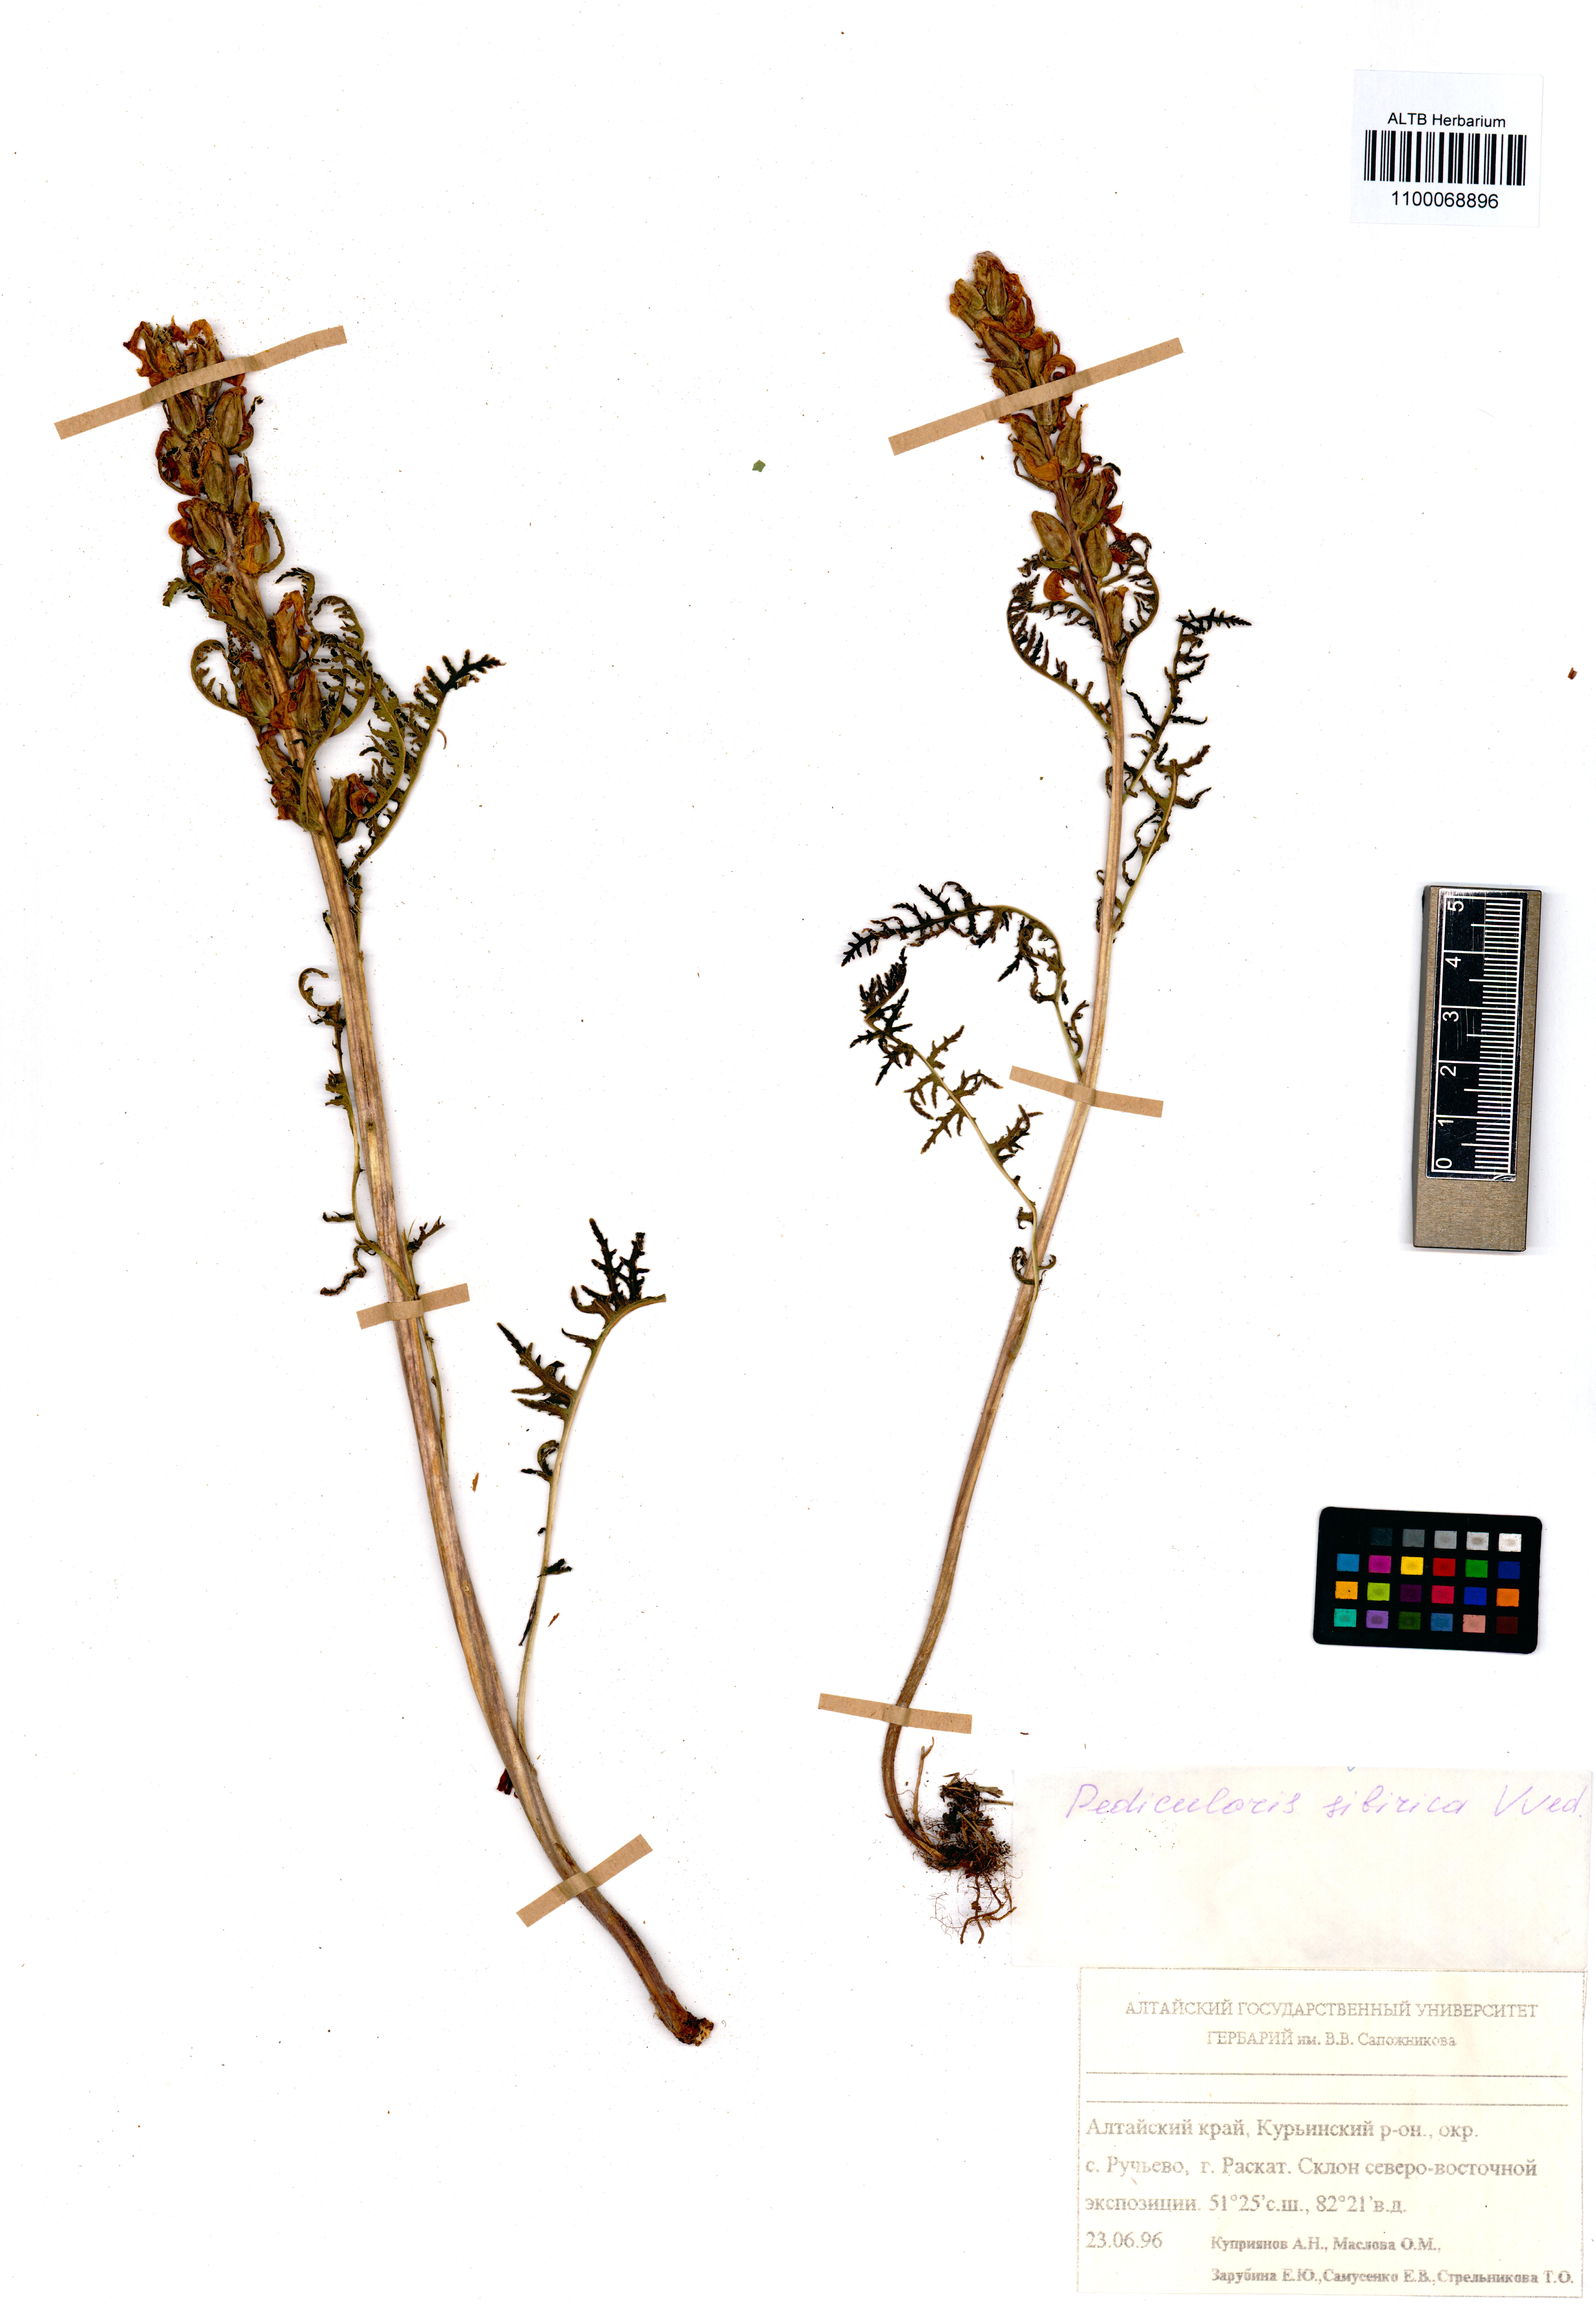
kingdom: Plantae
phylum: Tracheophyta
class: Magnoliopsida
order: Lamiales
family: Orobanchaceae
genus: Pedicularis
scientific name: Pedicularis sibirica
